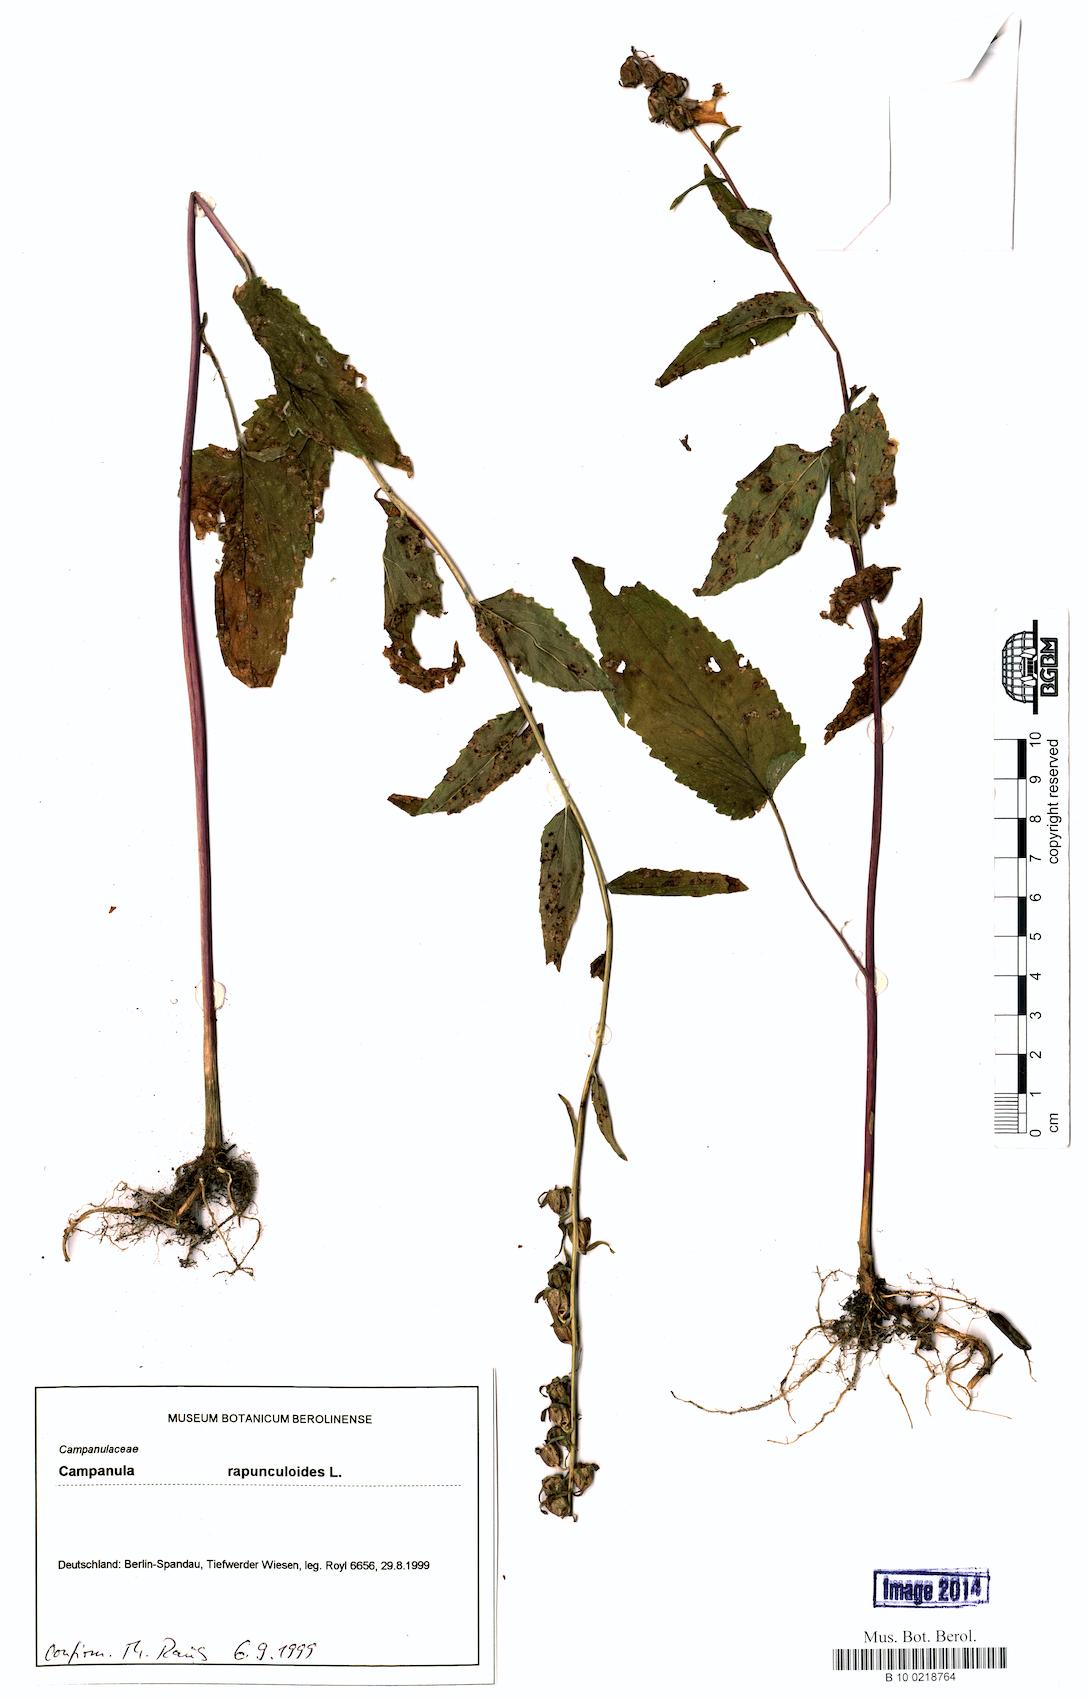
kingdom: Plantae
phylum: Tracheophyta
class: Magnoliopsida
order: Asterales
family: Campanulaceae
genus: Campanula
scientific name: Campanula rapunculoides
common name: Creeping bellflower
